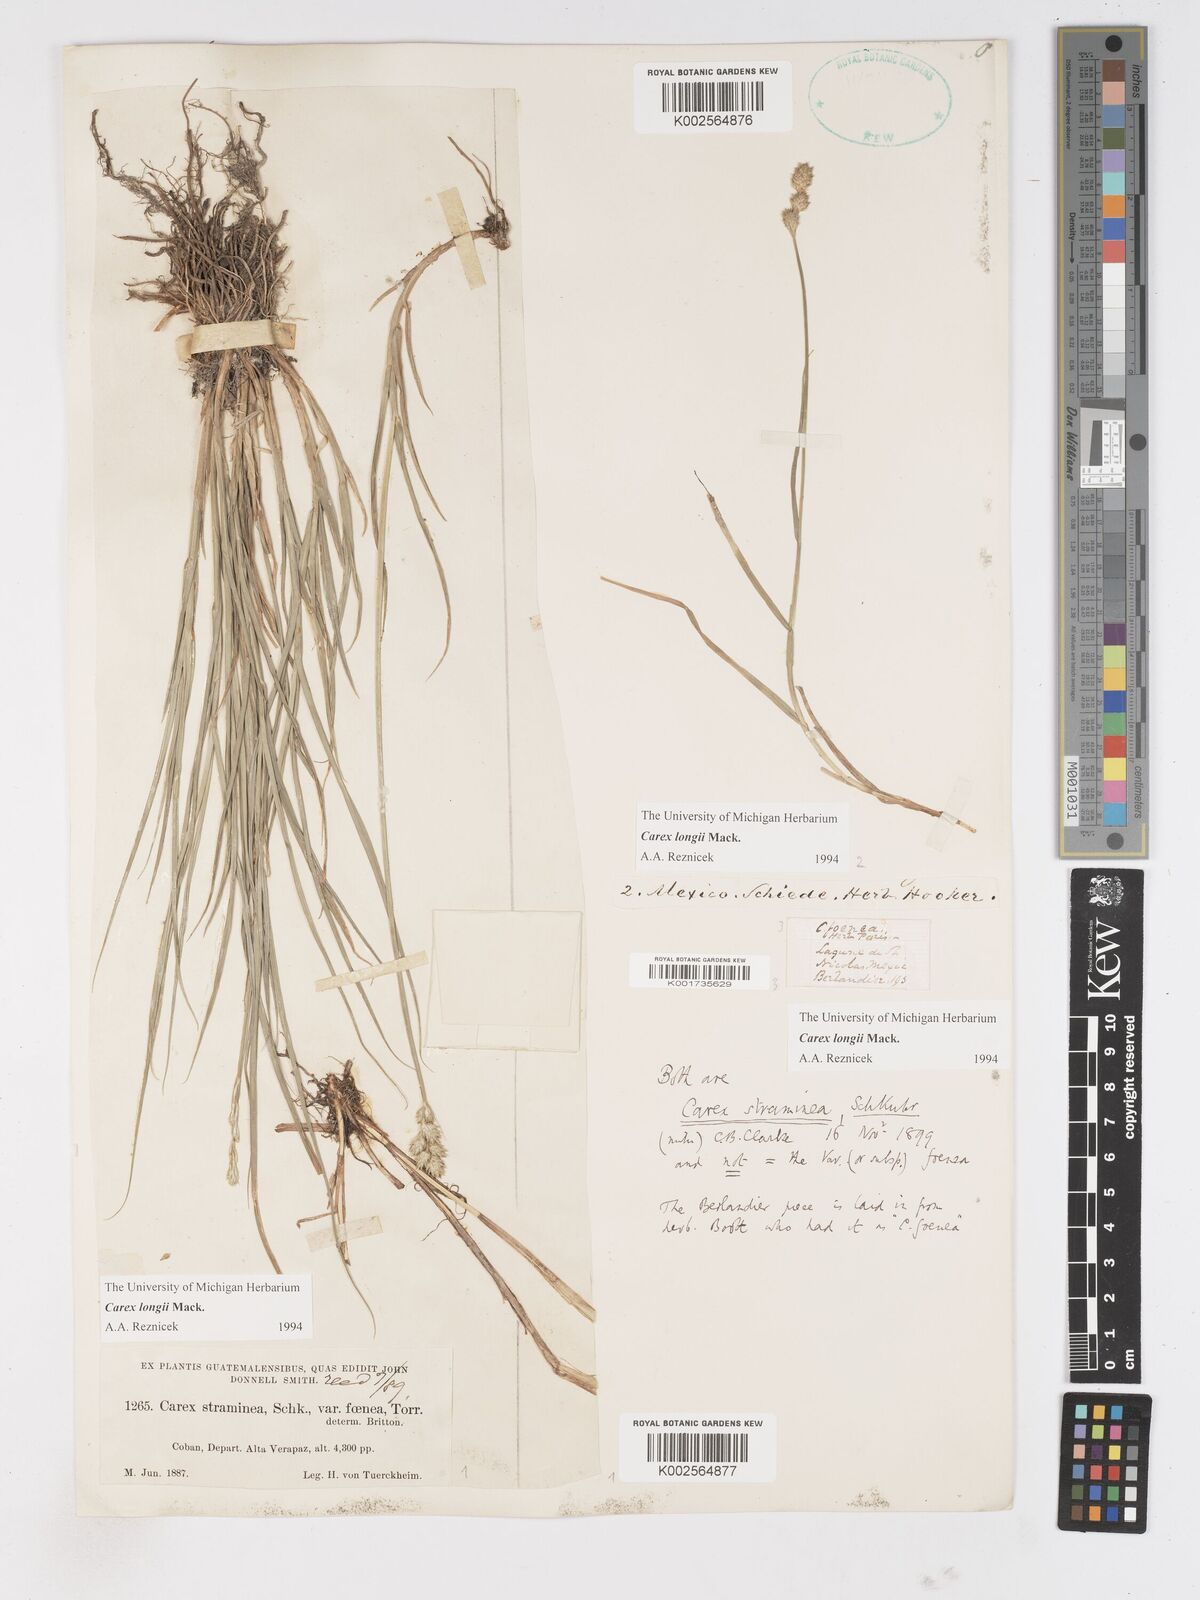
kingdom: Plantae
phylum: Tracheophyta
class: Liliopsida
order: Poales
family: Cyperaceae
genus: Carex
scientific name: Carex longii
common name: Long's sedge
